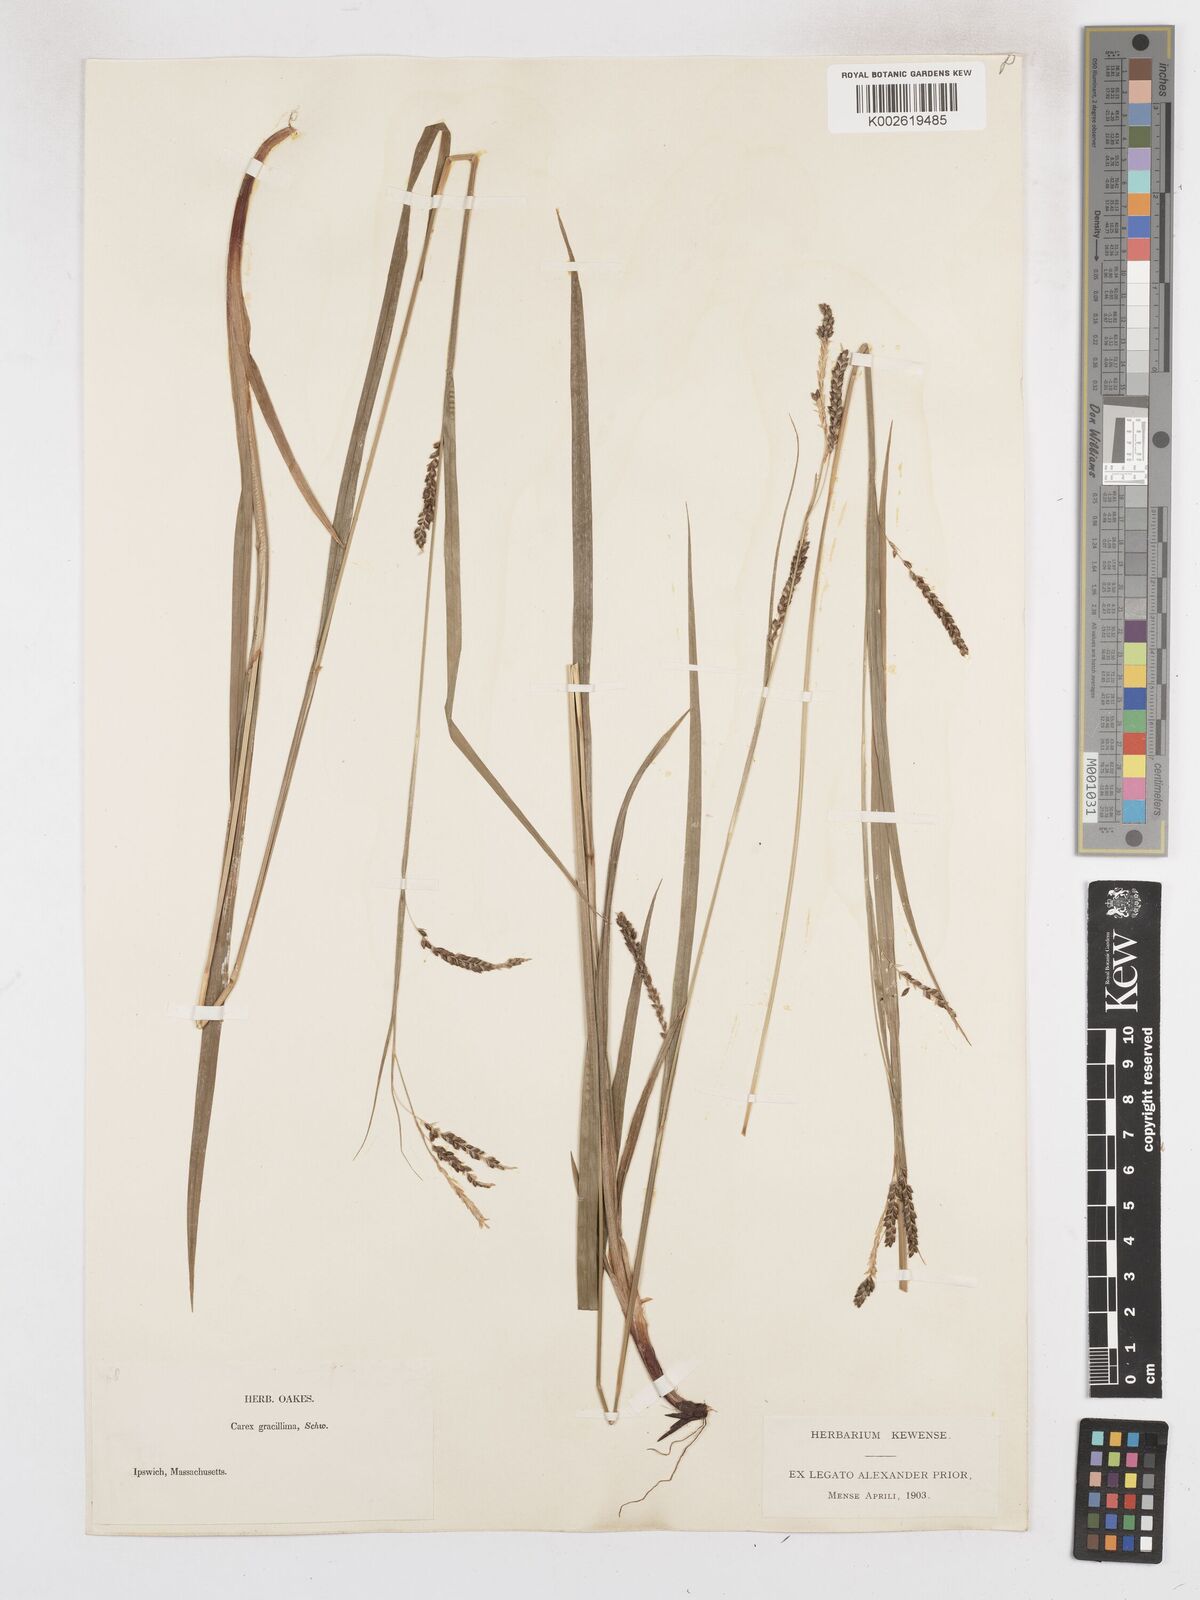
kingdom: Plantae
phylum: Tracheophyta
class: Liliopsida
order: Poales
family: Cyperaceae
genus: Carex
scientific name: Carex gracillima
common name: Graceful sedge
